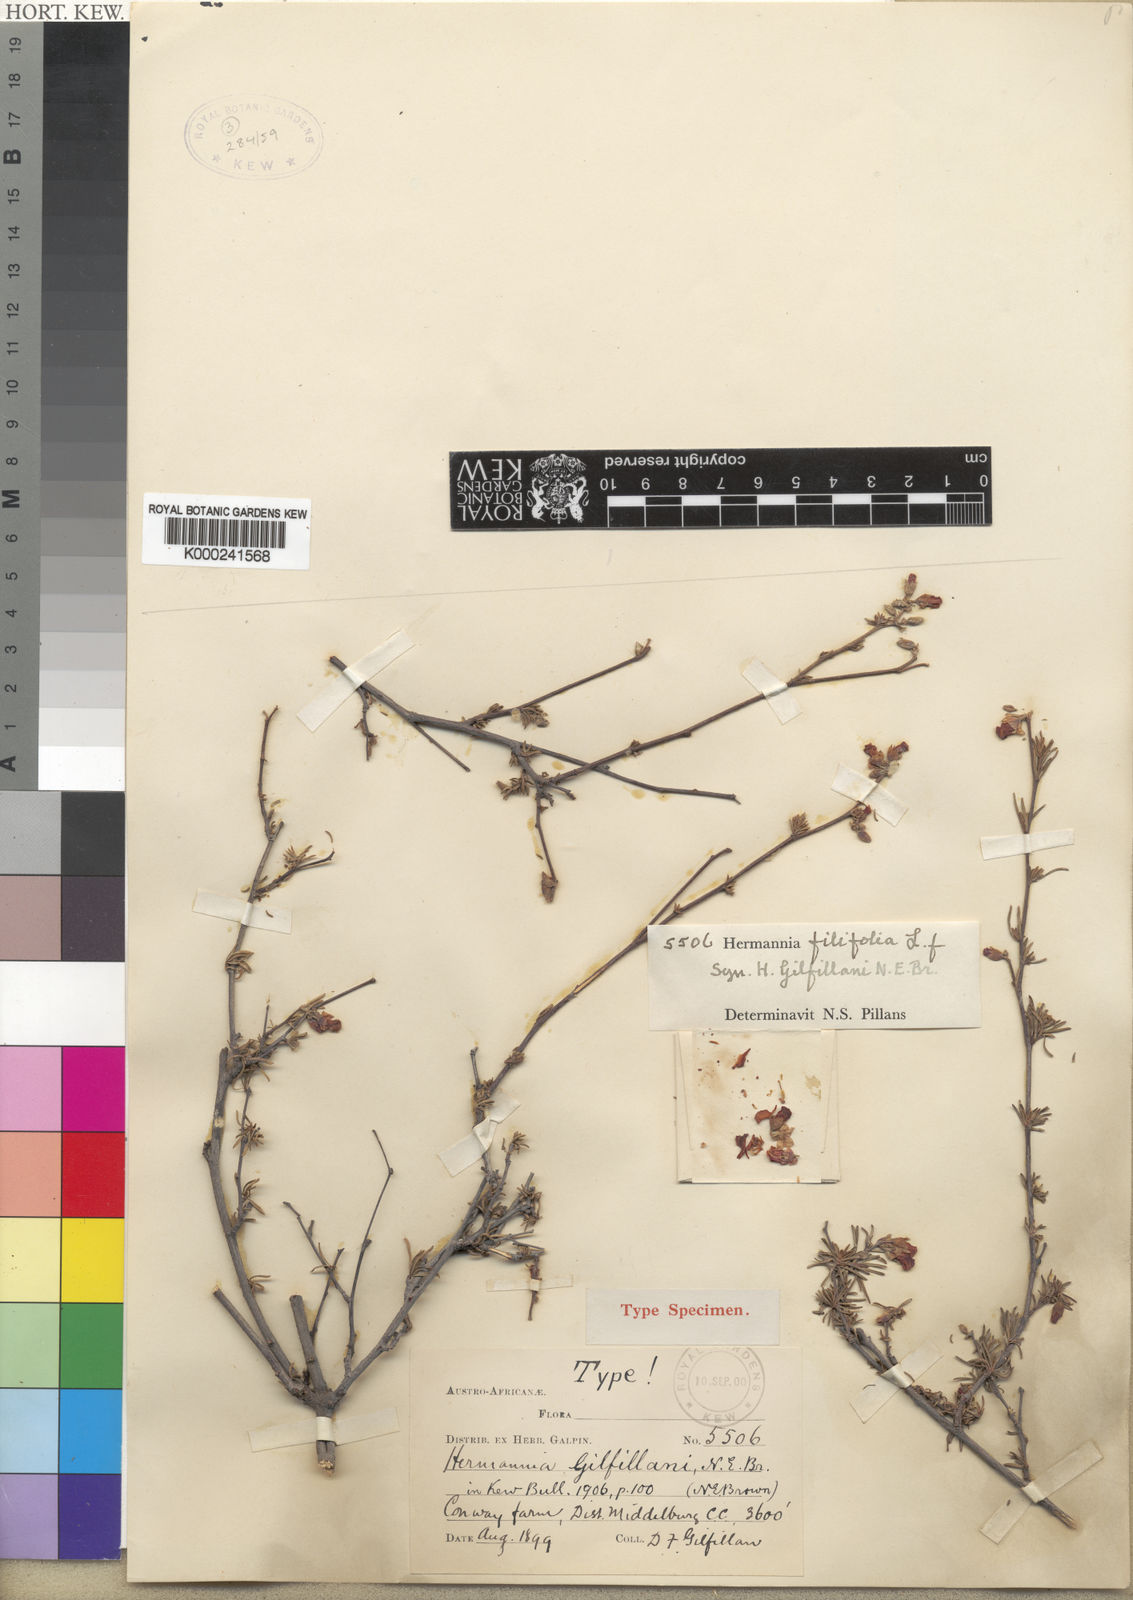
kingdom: Plantae
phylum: Tracheophyta
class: Magnoliopsida
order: Malvales
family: Malvaceae
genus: Hermannia
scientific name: Hermannia filifolia
